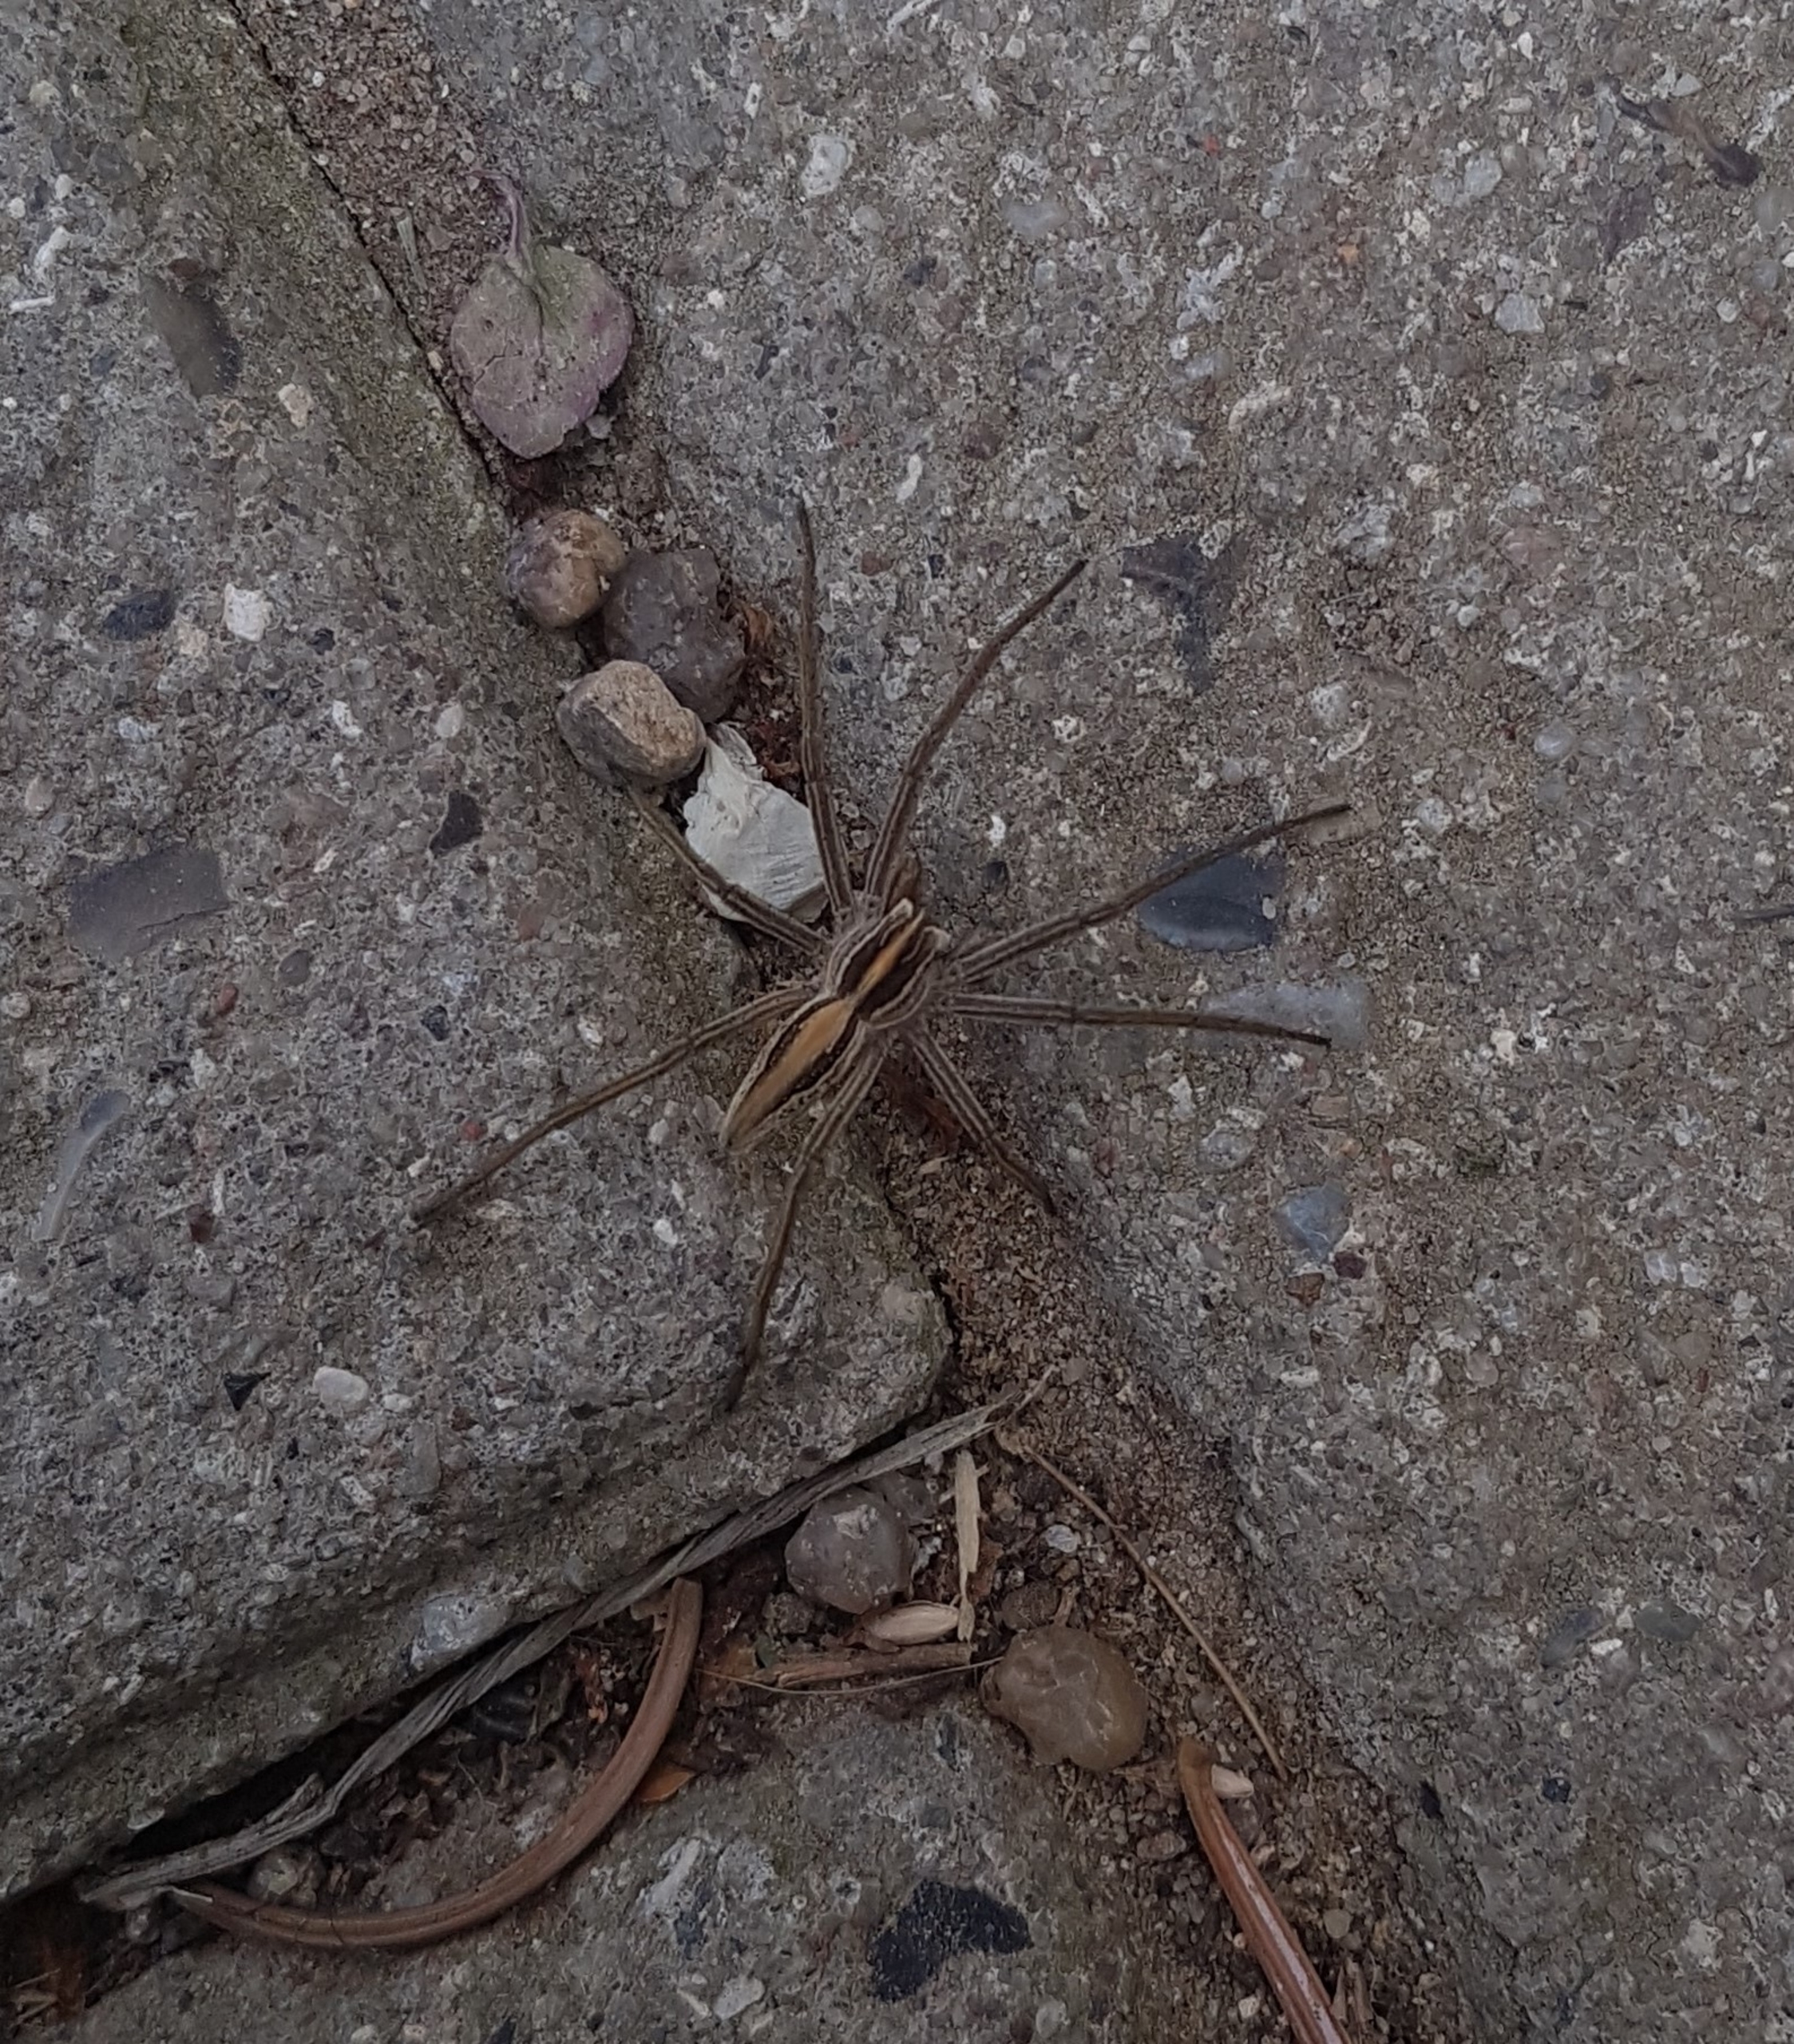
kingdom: Animalia
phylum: Arthropoda
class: Arachnida
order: Araneae
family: Pisauridae
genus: Pisaura
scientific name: Pisaura mirabilis
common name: Almindelig rovedderkop
